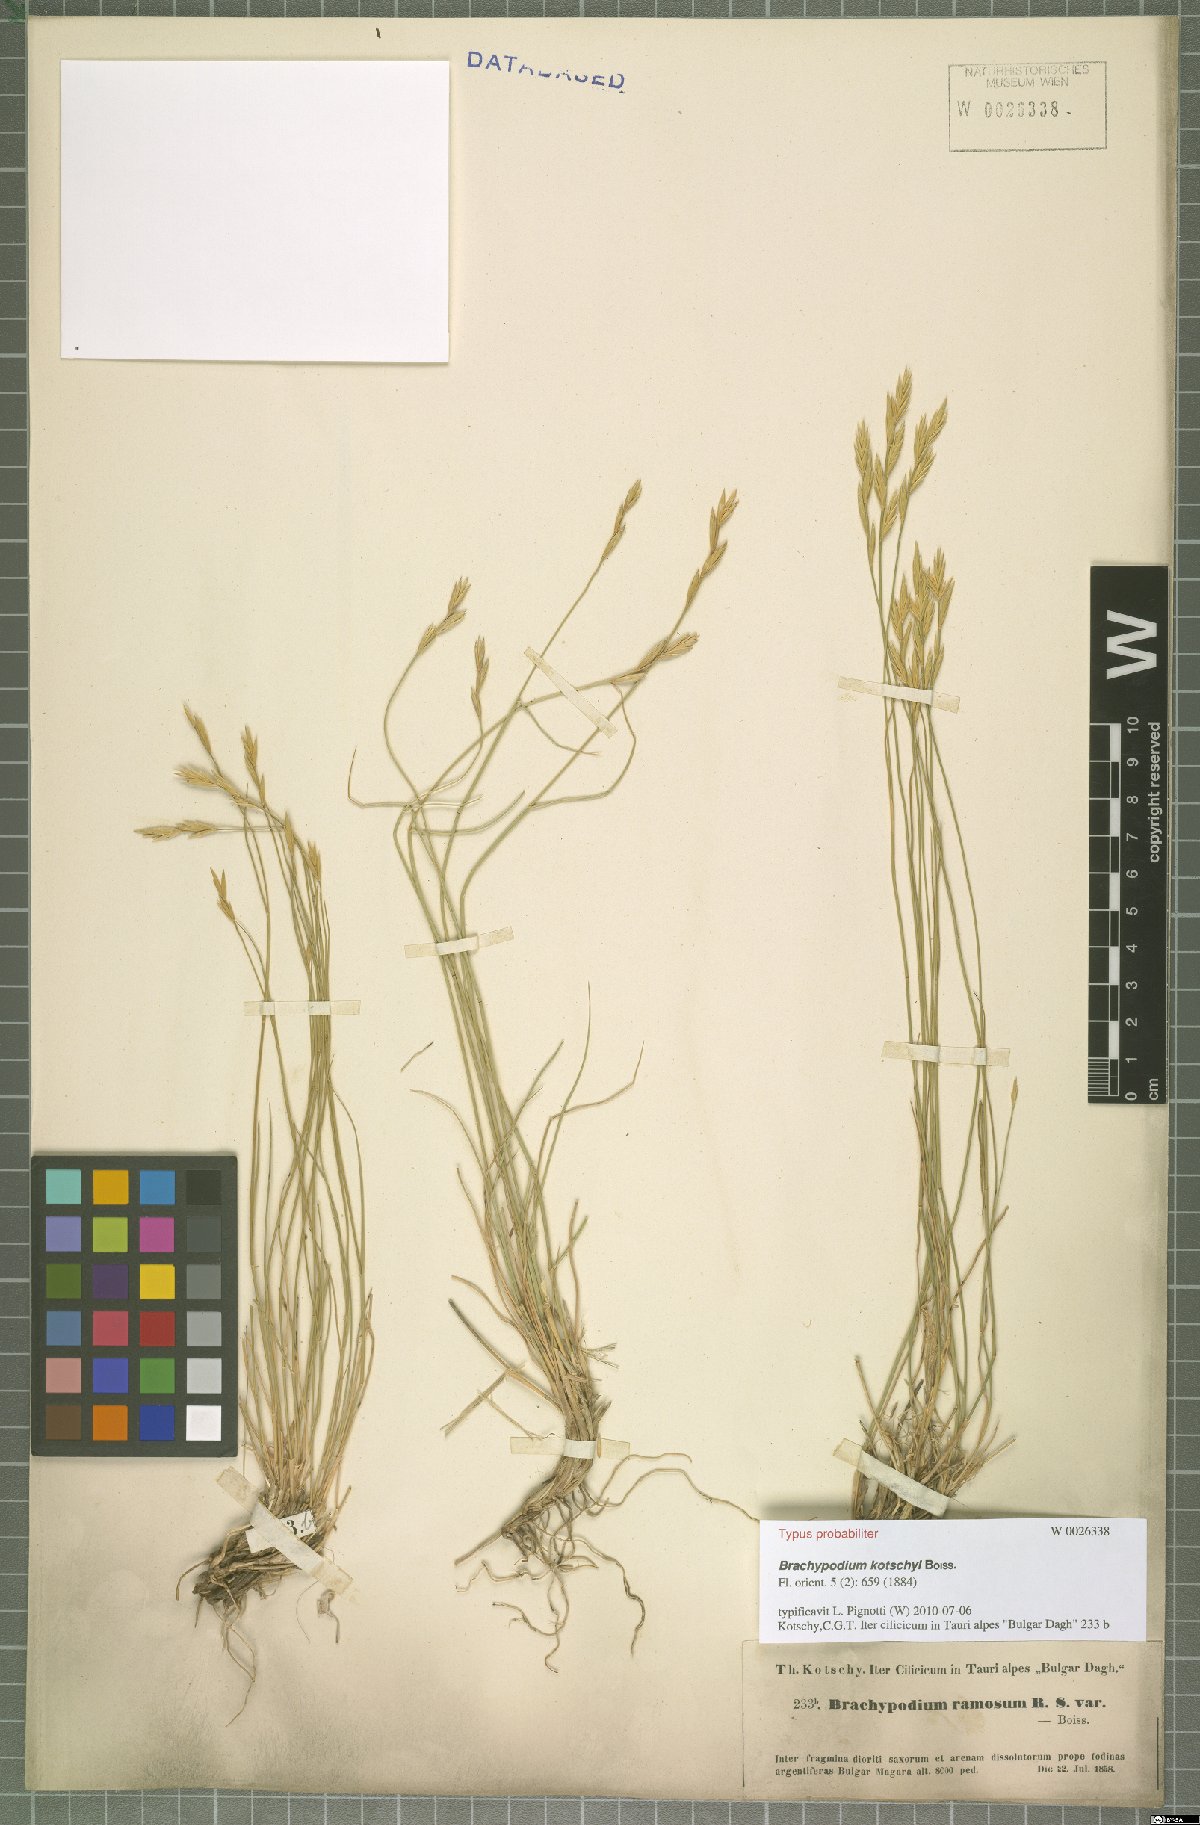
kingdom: Plantae
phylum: Tracheophyta
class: Liliopsida
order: Poales
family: Poaceae
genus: Brachypodium
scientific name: Brachypodium kotschyi
